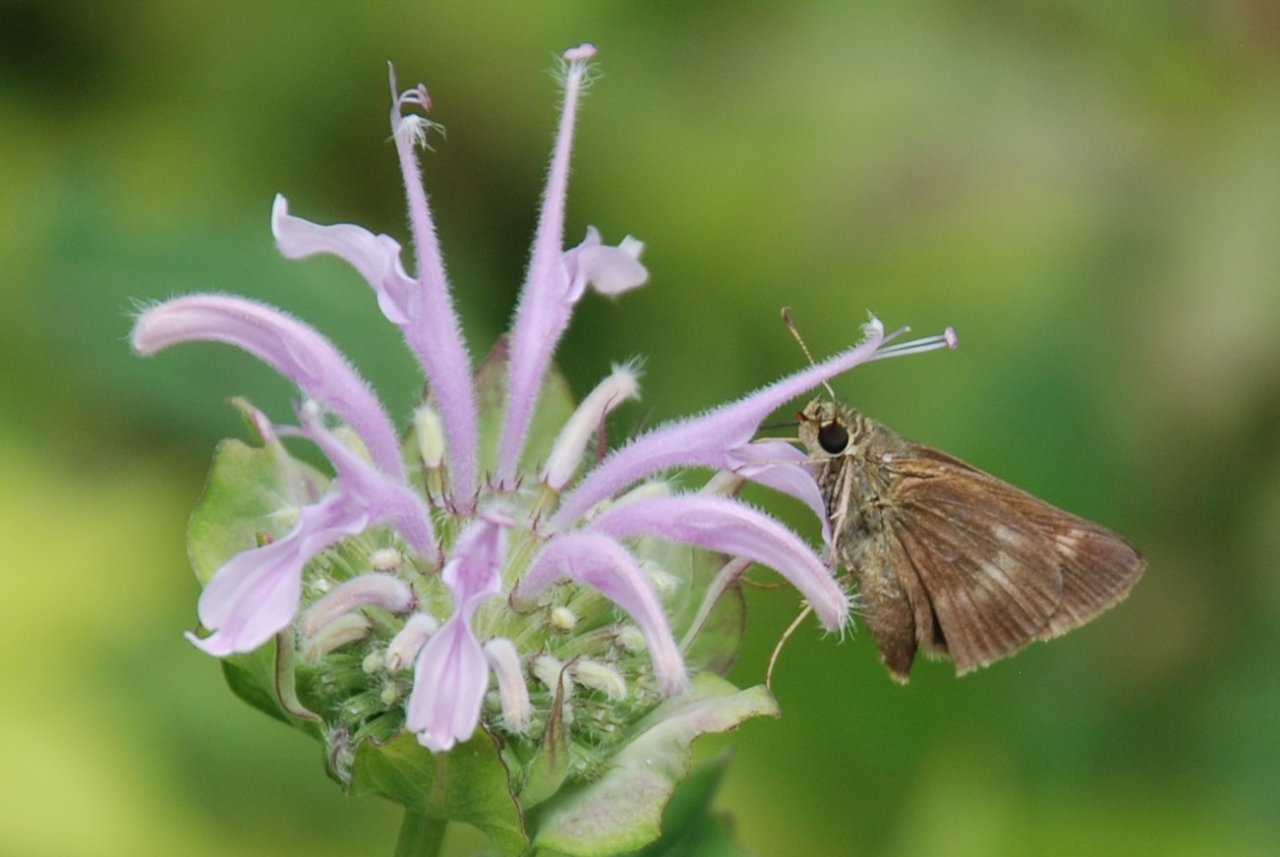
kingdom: Animalia
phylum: Arthropoda
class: Insecta
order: Lepidoptera
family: Hesperiidae
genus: Polites
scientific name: Polites egeremet
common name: Northern Broken-Dash
